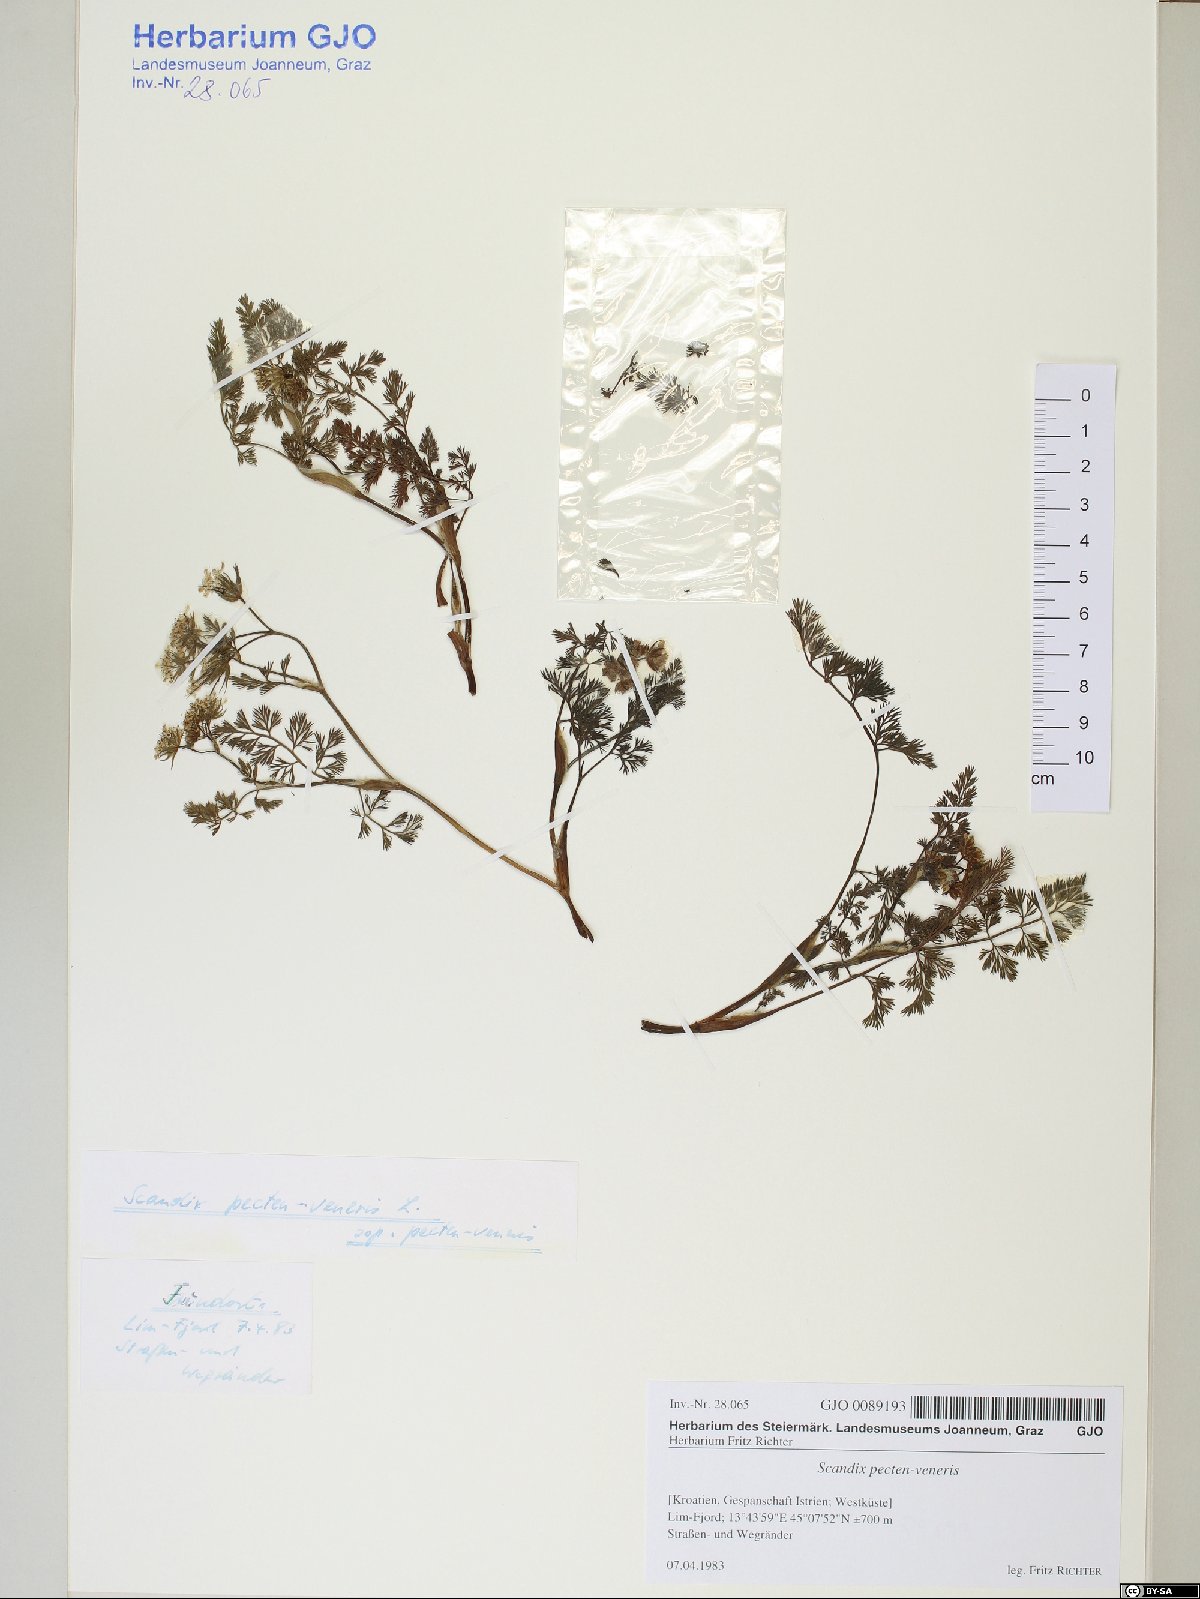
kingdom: Plantae
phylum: Tracheophyta
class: Magnoliopsida
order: Apiales
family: Apiaceae
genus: Scandix
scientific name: Scandix pecten-veneris
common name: Shepherd's-needle
